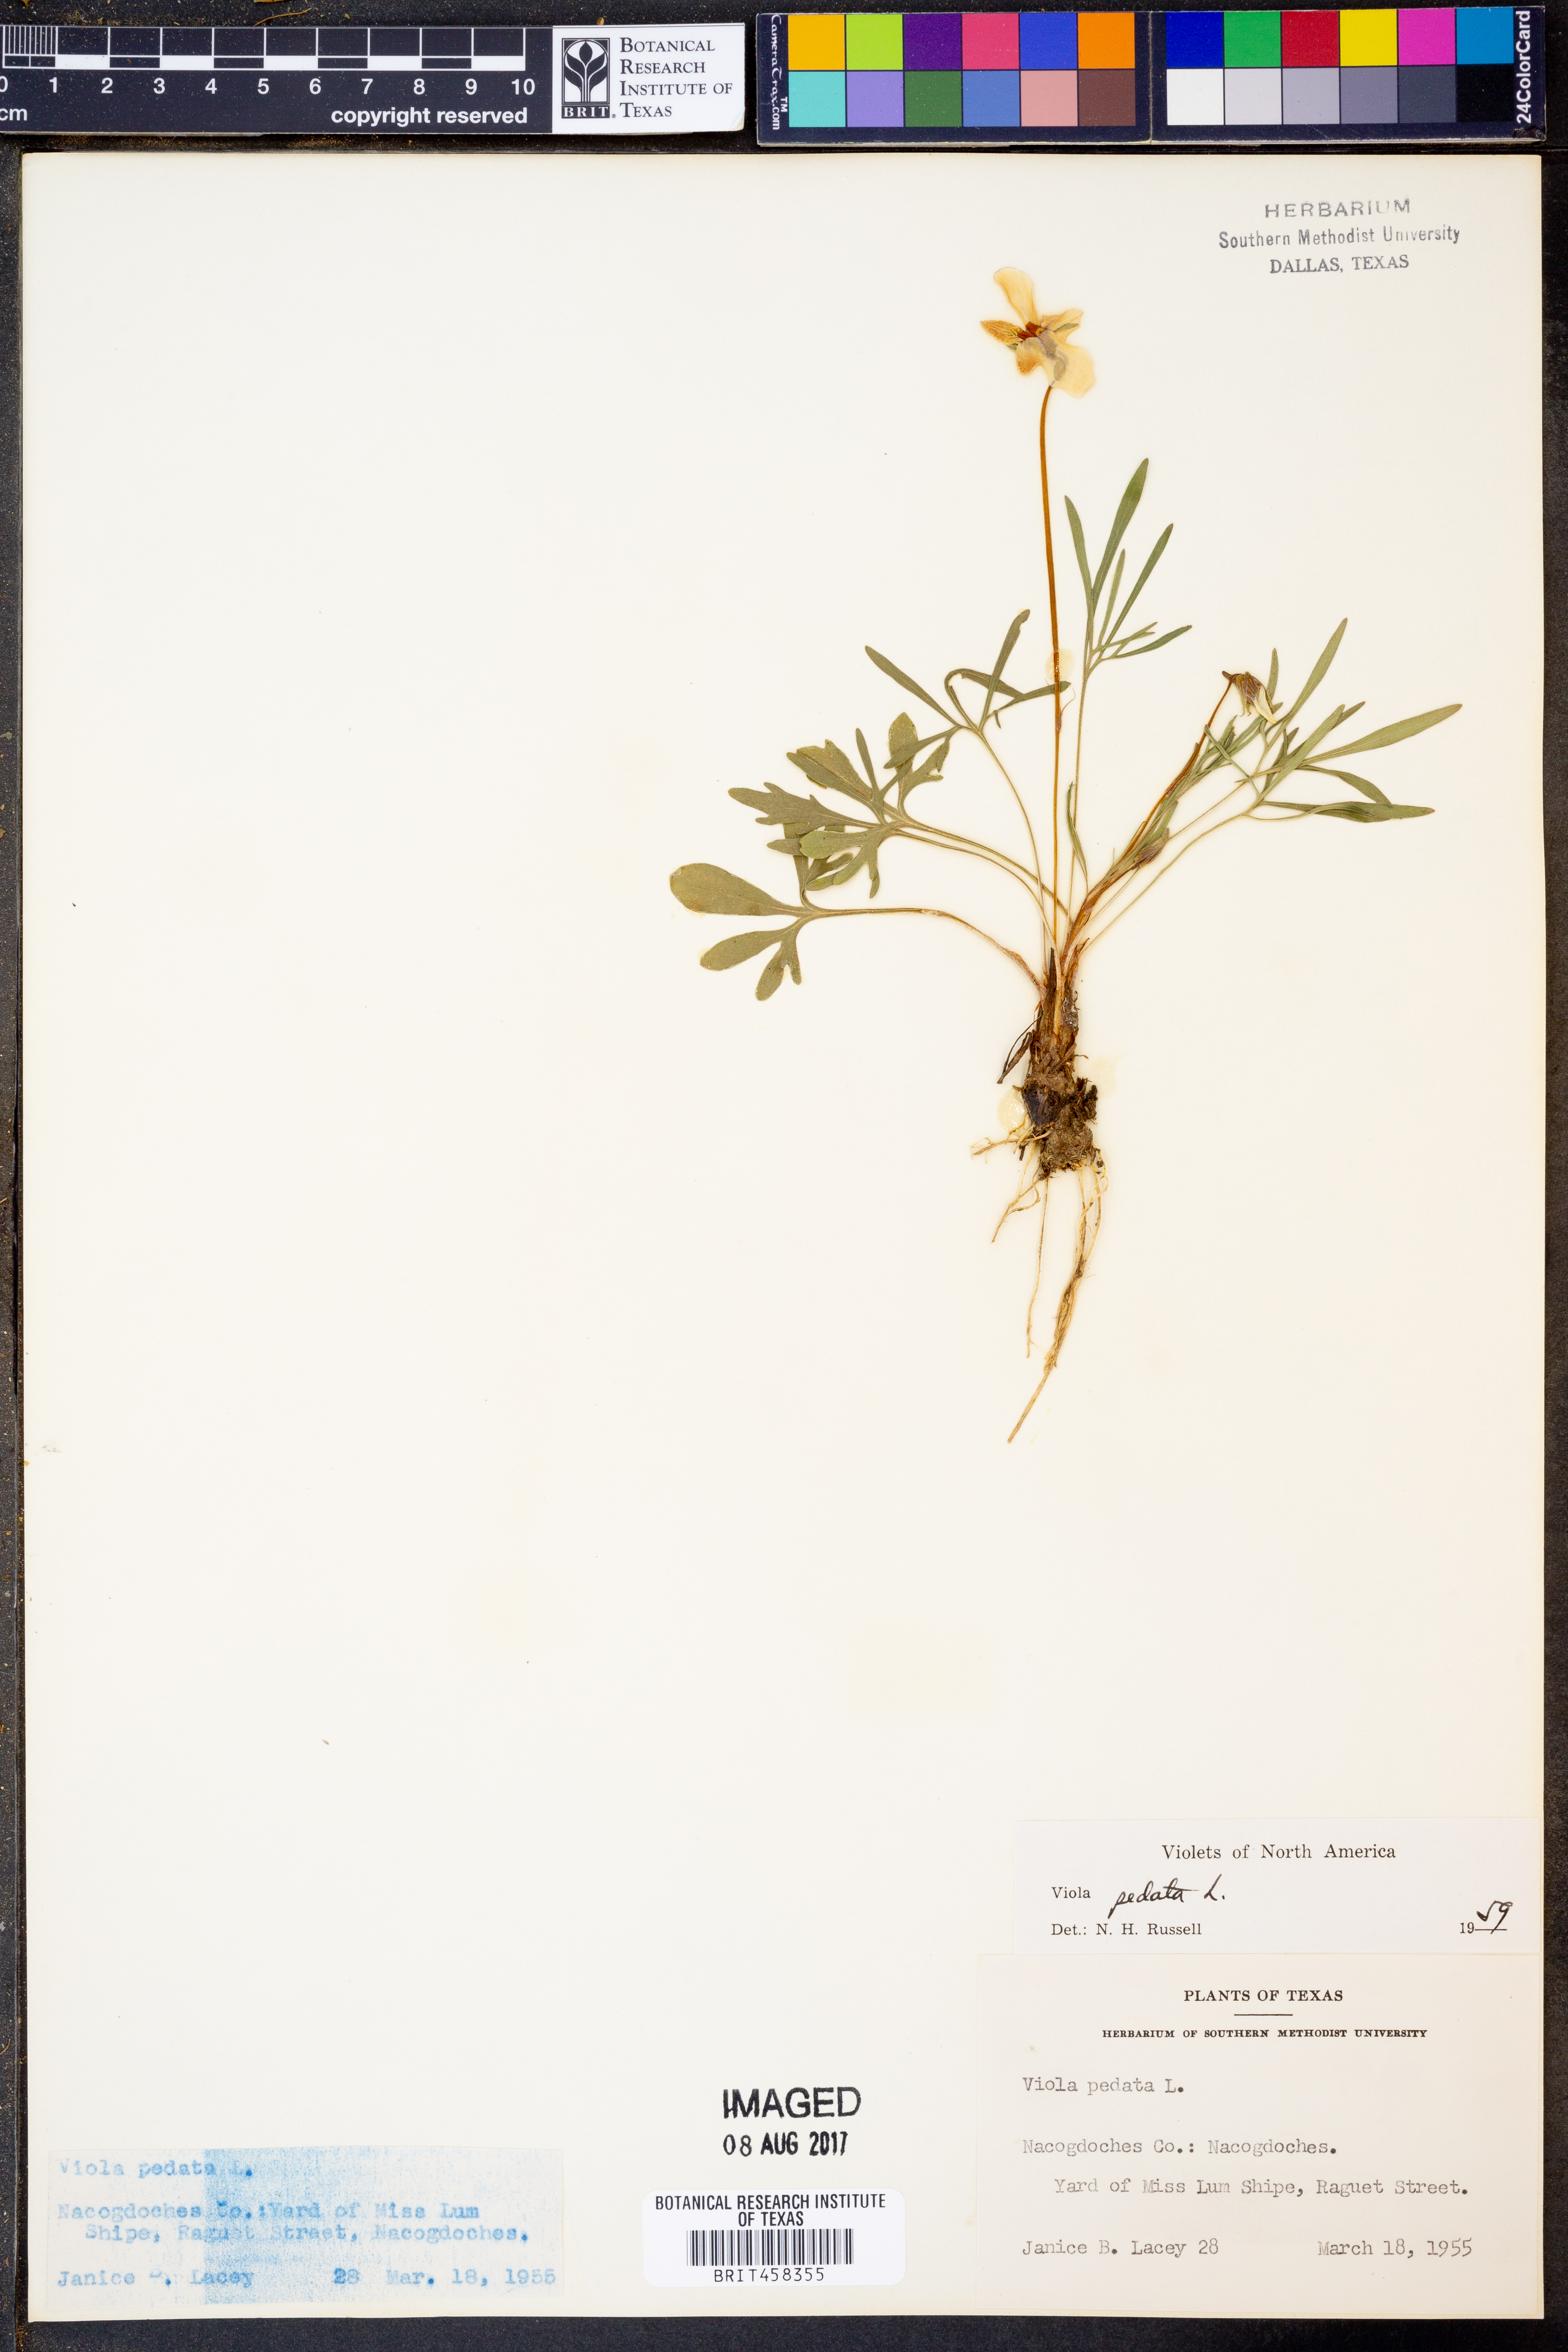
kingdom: Plantae
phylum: Tracheophyta
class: Magnoliopsida
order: Malpighiales
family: Violaceae
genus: Viola
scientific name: Viola pedata
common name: Pansy violet
